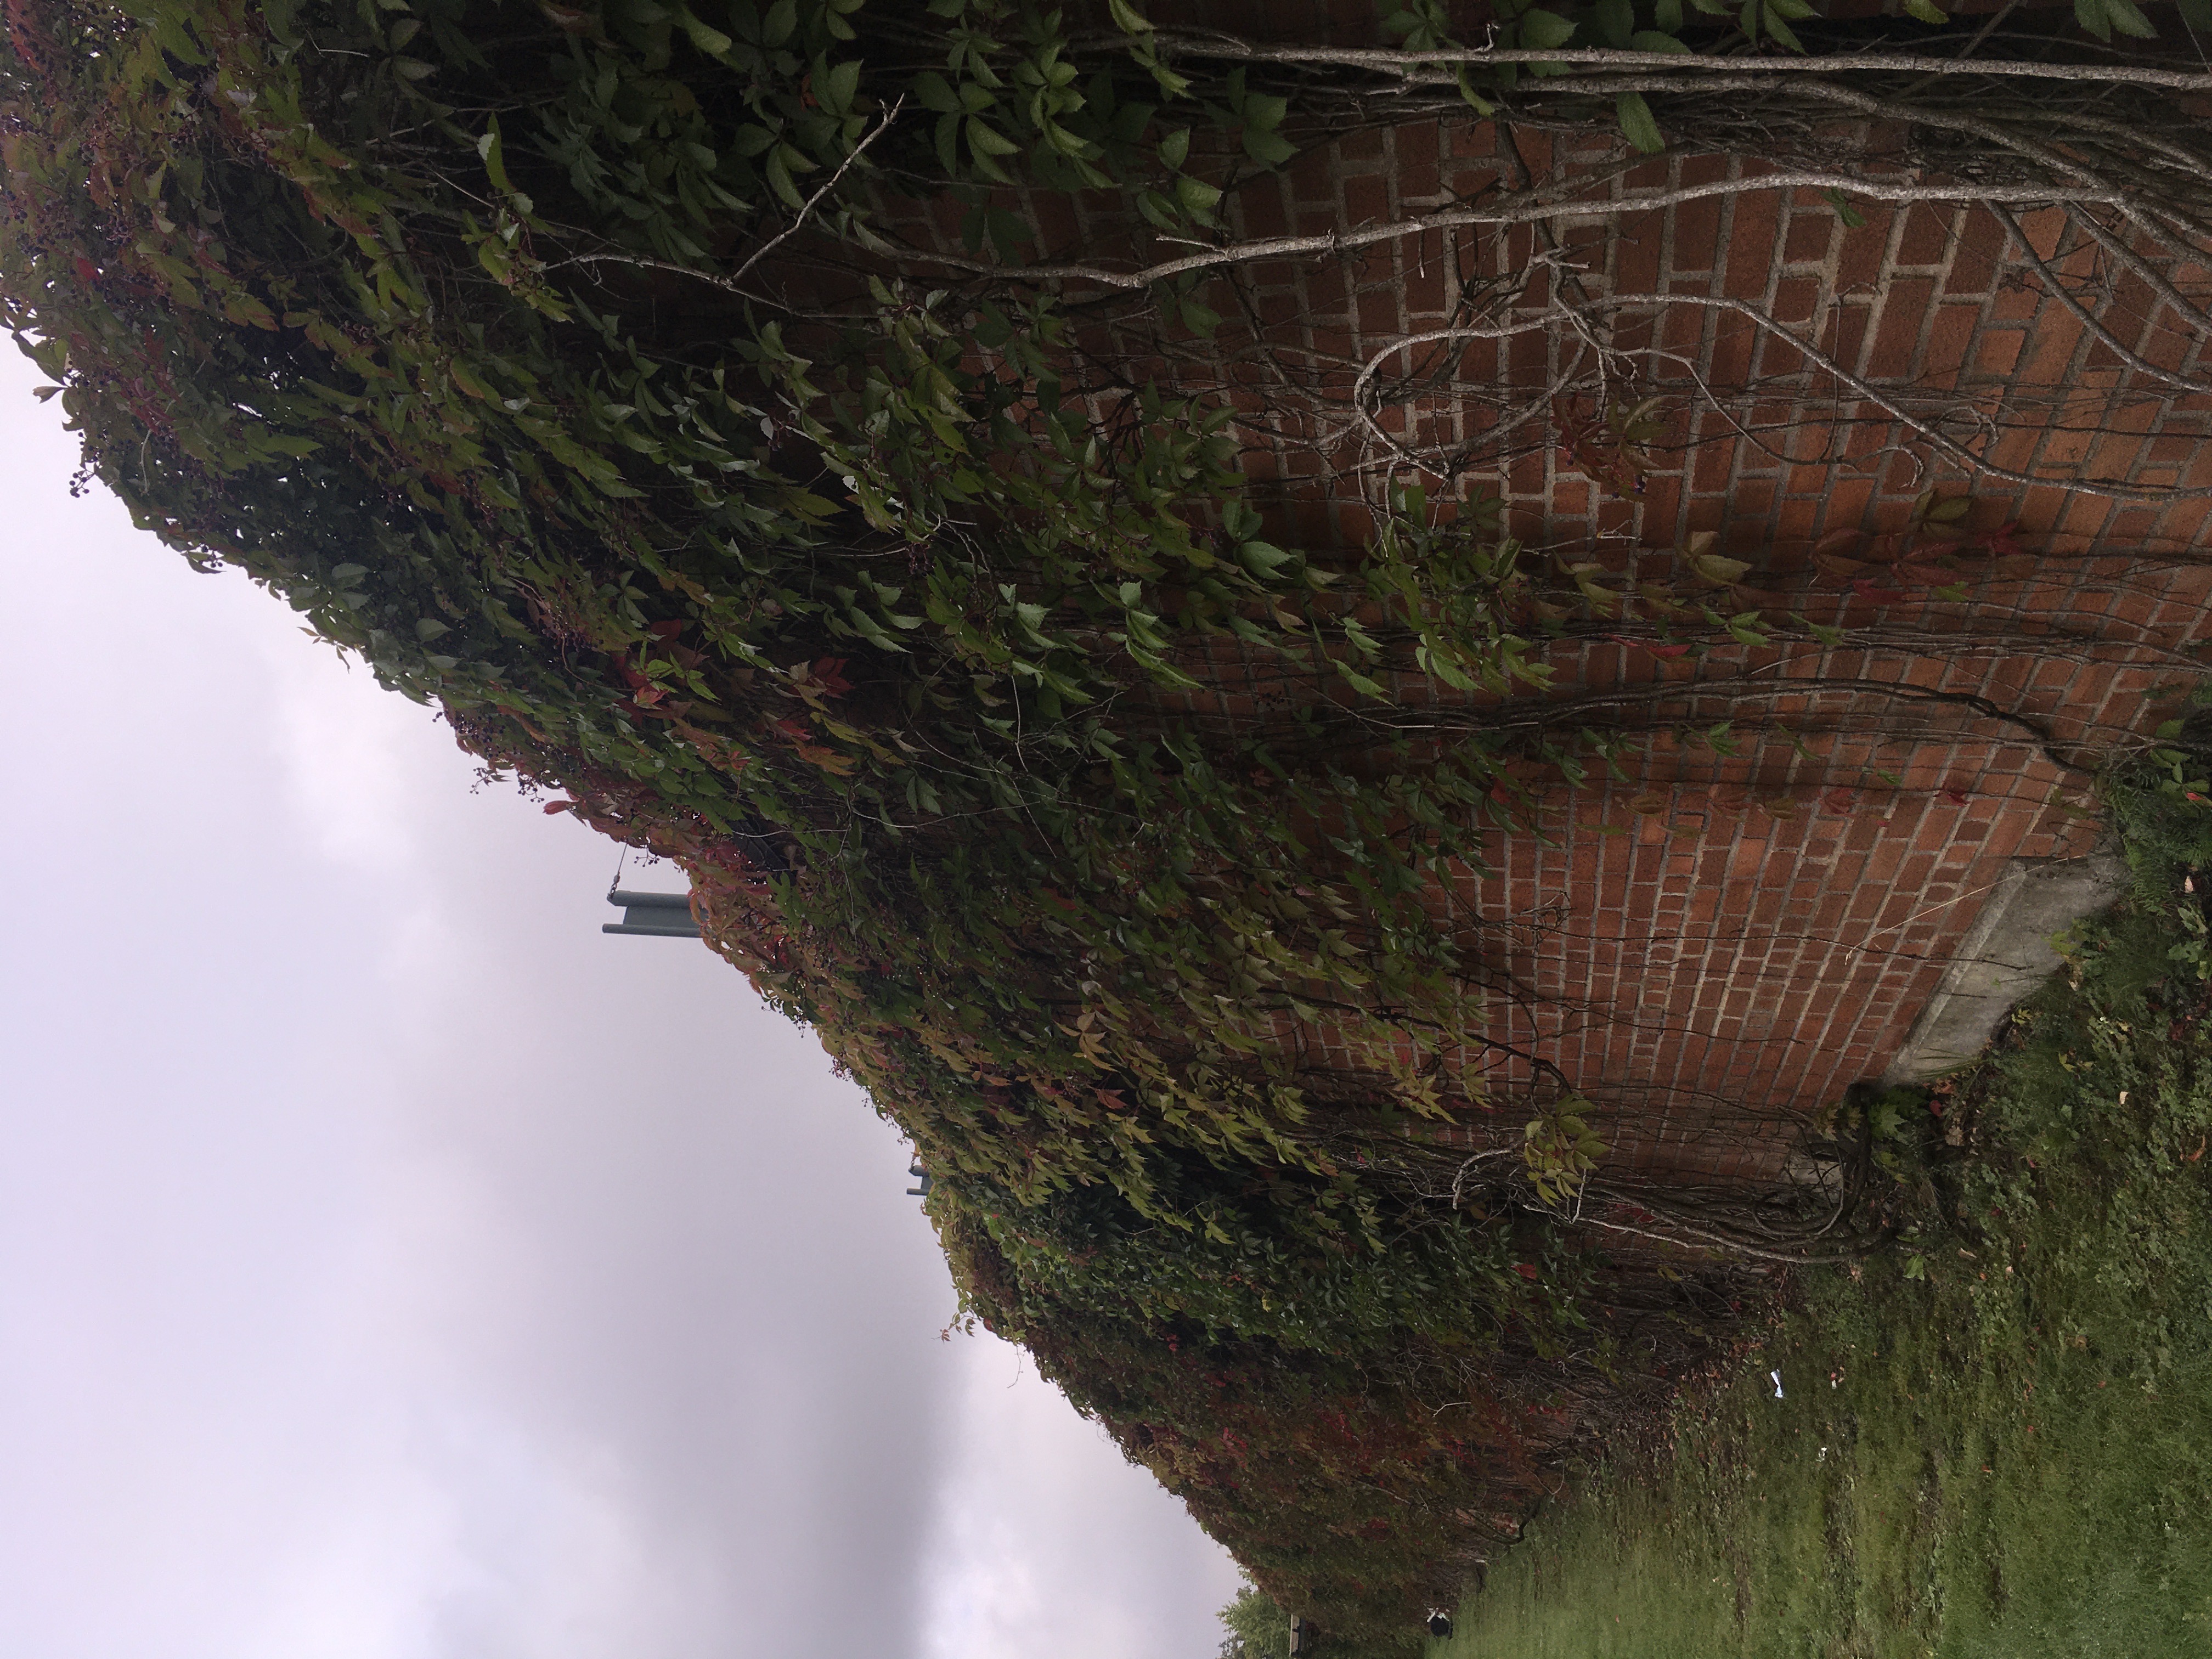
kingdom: Plantae
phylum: Tracheophyta
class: Magnoliopsida
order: Vitales
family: Vitaceae
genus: Parthenocissus
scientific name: Parthenocissus quinquefolia
